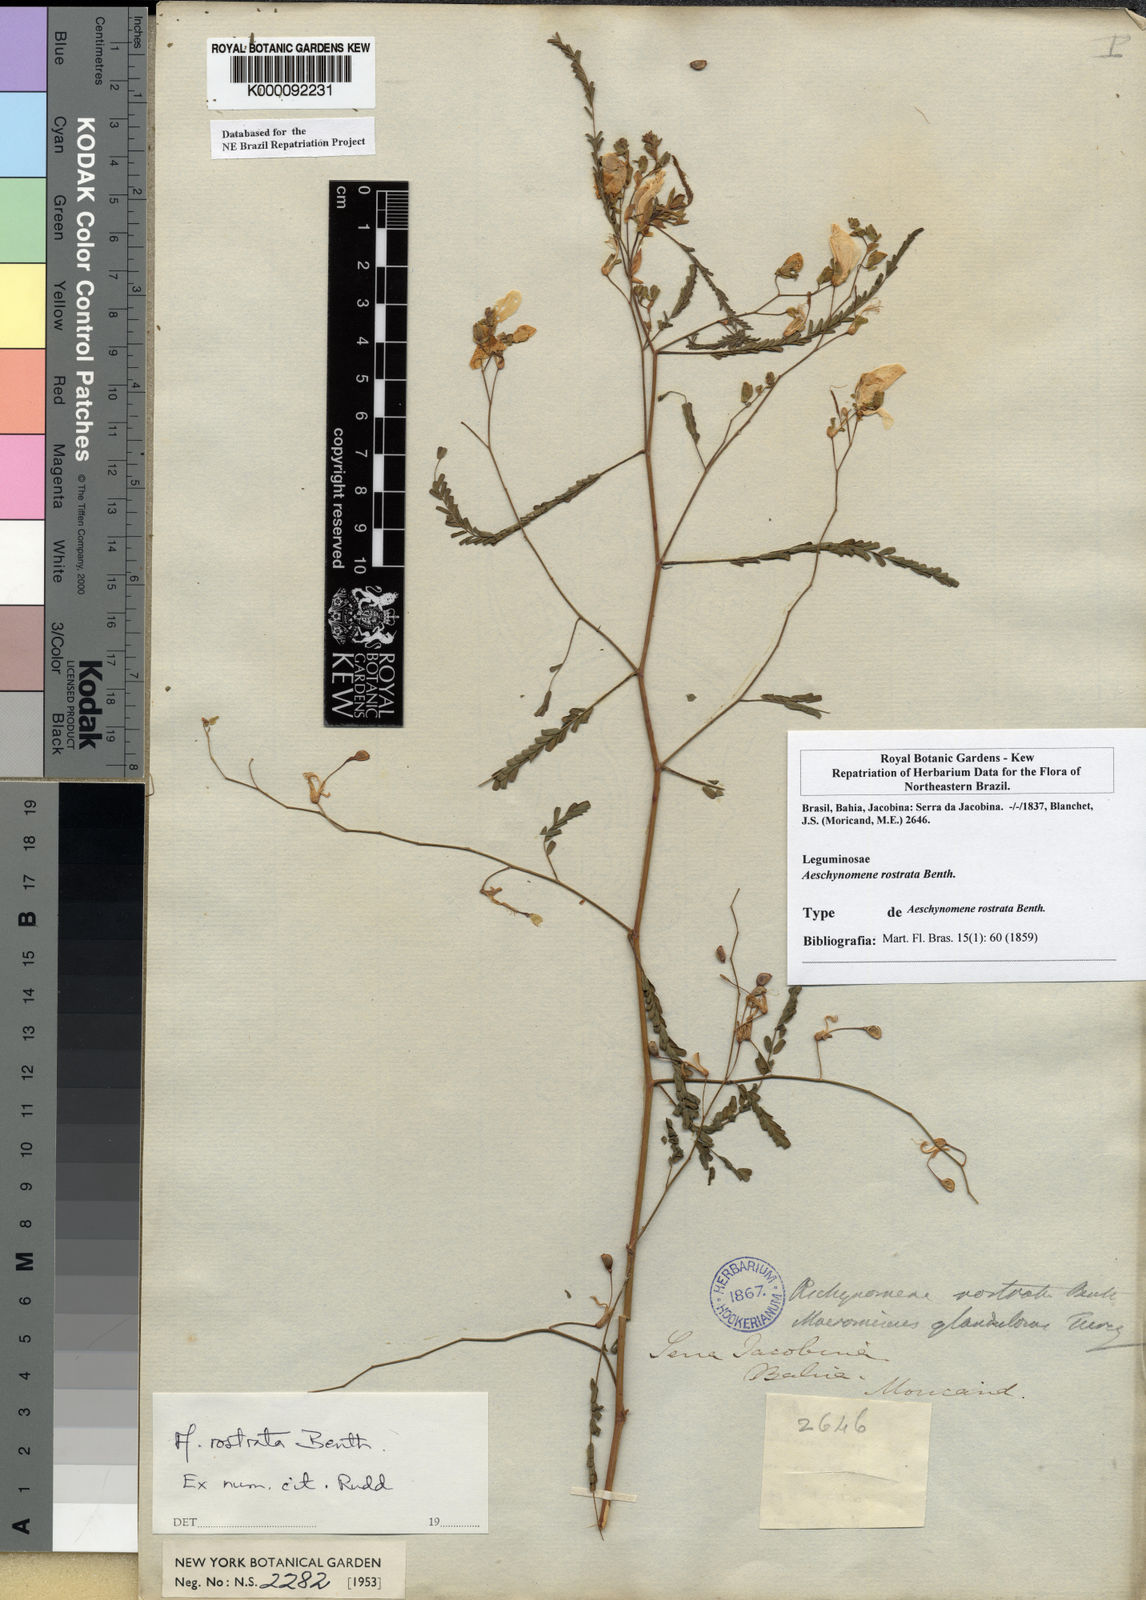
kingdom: Plantae
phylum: Tracheophyta
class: Magnoliopsida
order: Fabales
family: Fabaceae
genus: Aeschynomene
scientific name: Aeschynomene rostrata
